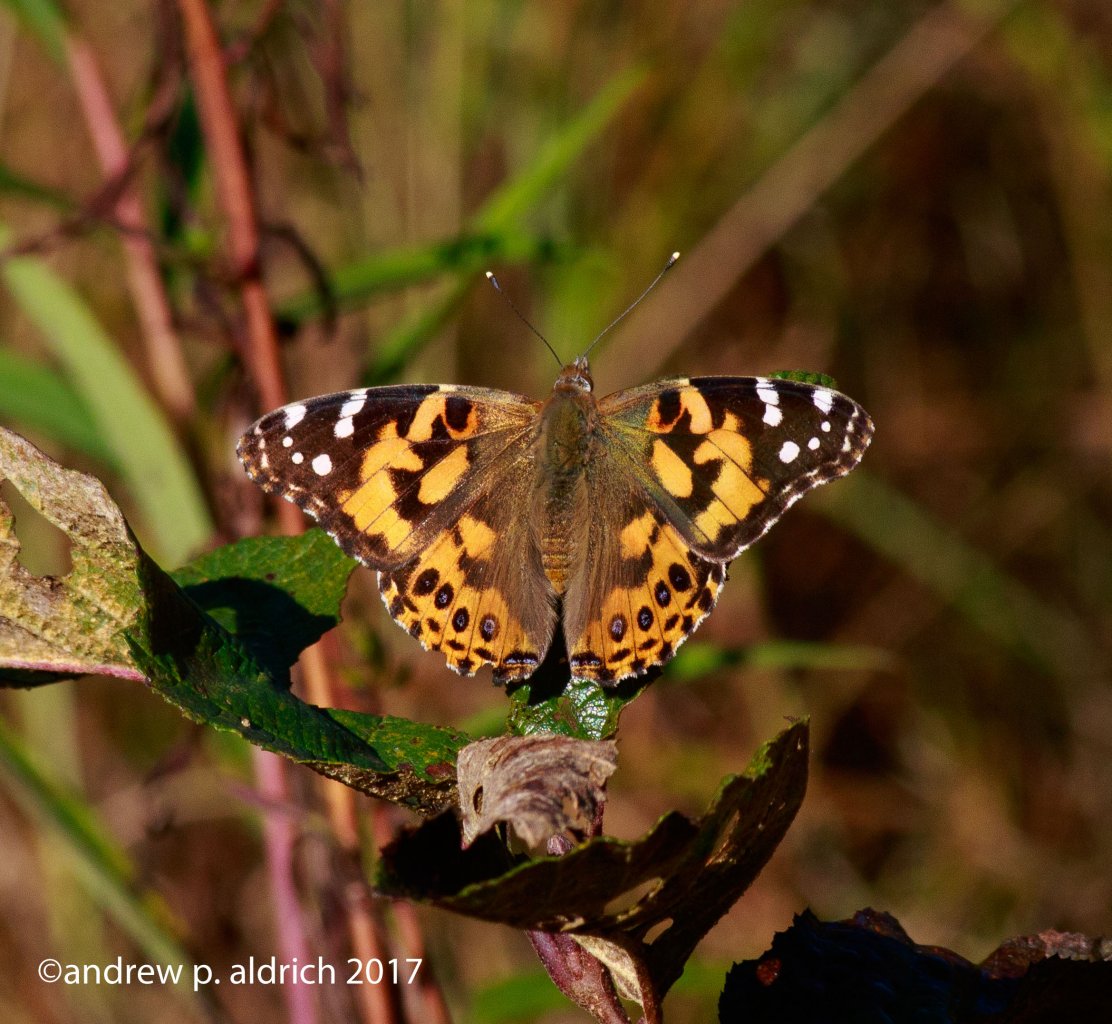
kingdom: Animalia
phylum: Arthropoda
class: Insecta
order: Lepidoptera
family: Nymphalidae
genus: Vanessa
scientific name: Vanessa cardui
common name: Painted Lady
